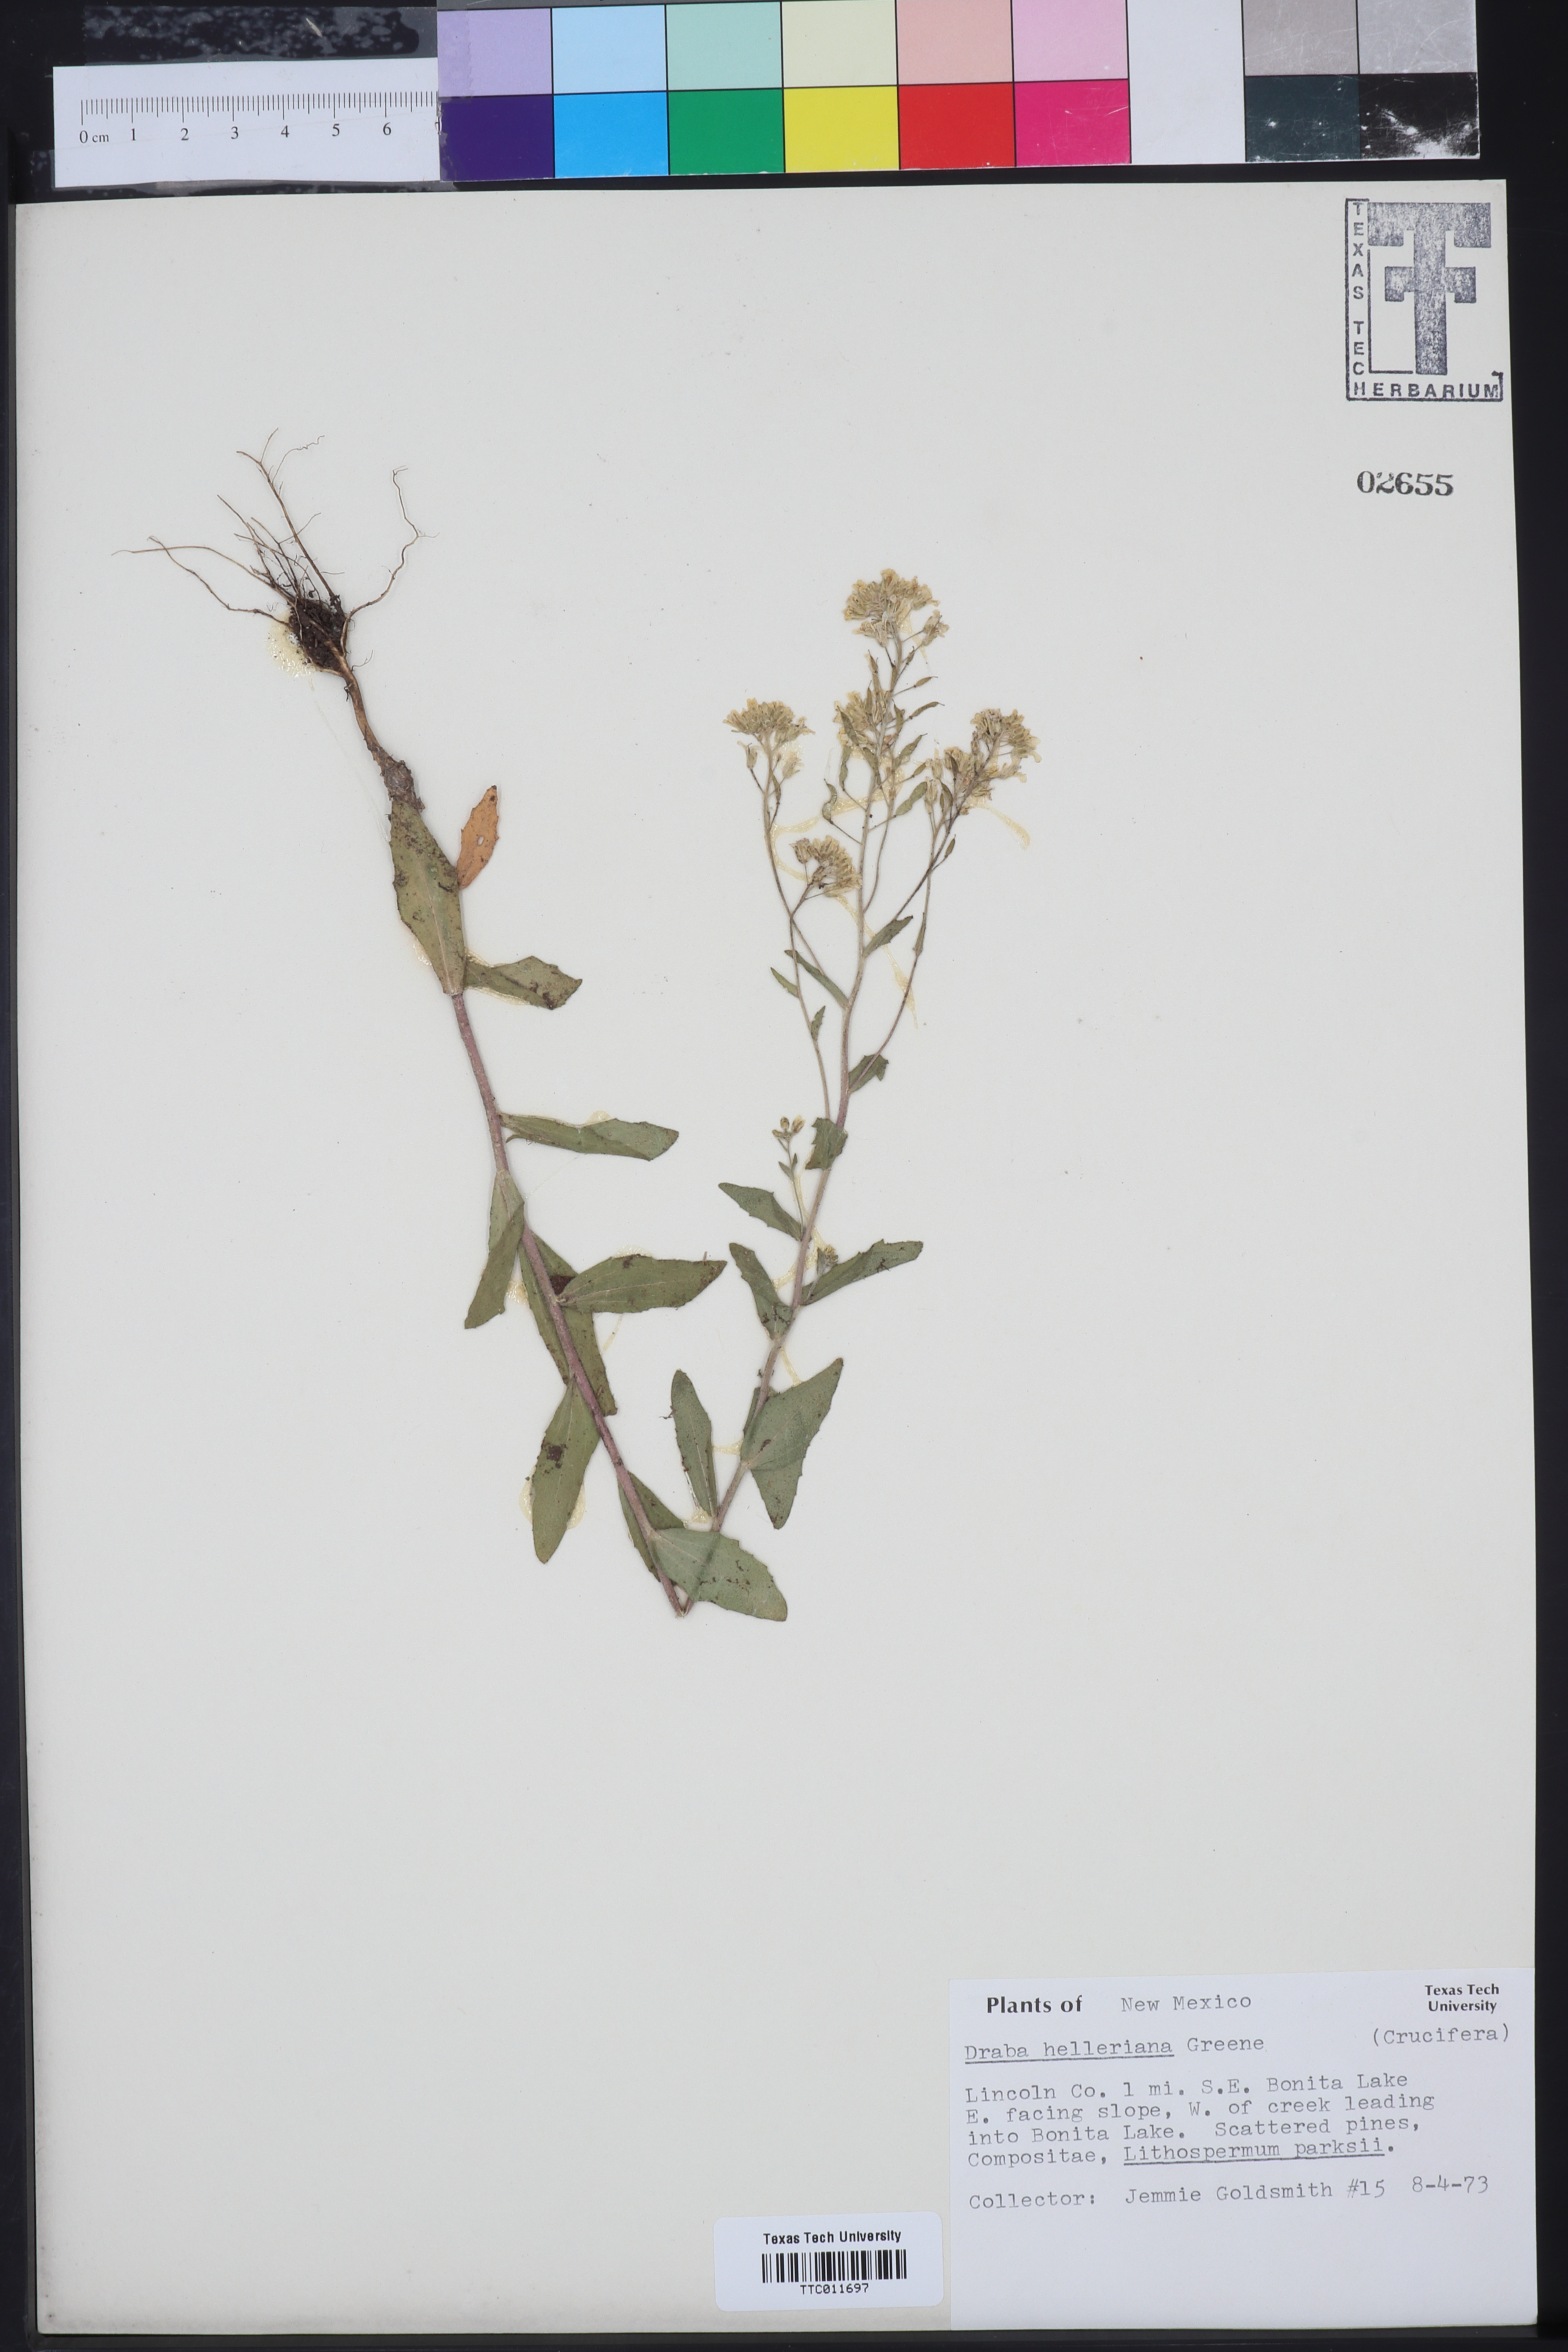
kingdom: Plantae
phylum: Tracheophyta
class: Magnoliopsida
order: Brassicales
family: Brassicaceae
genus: Draba
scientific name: Draba helleriana
